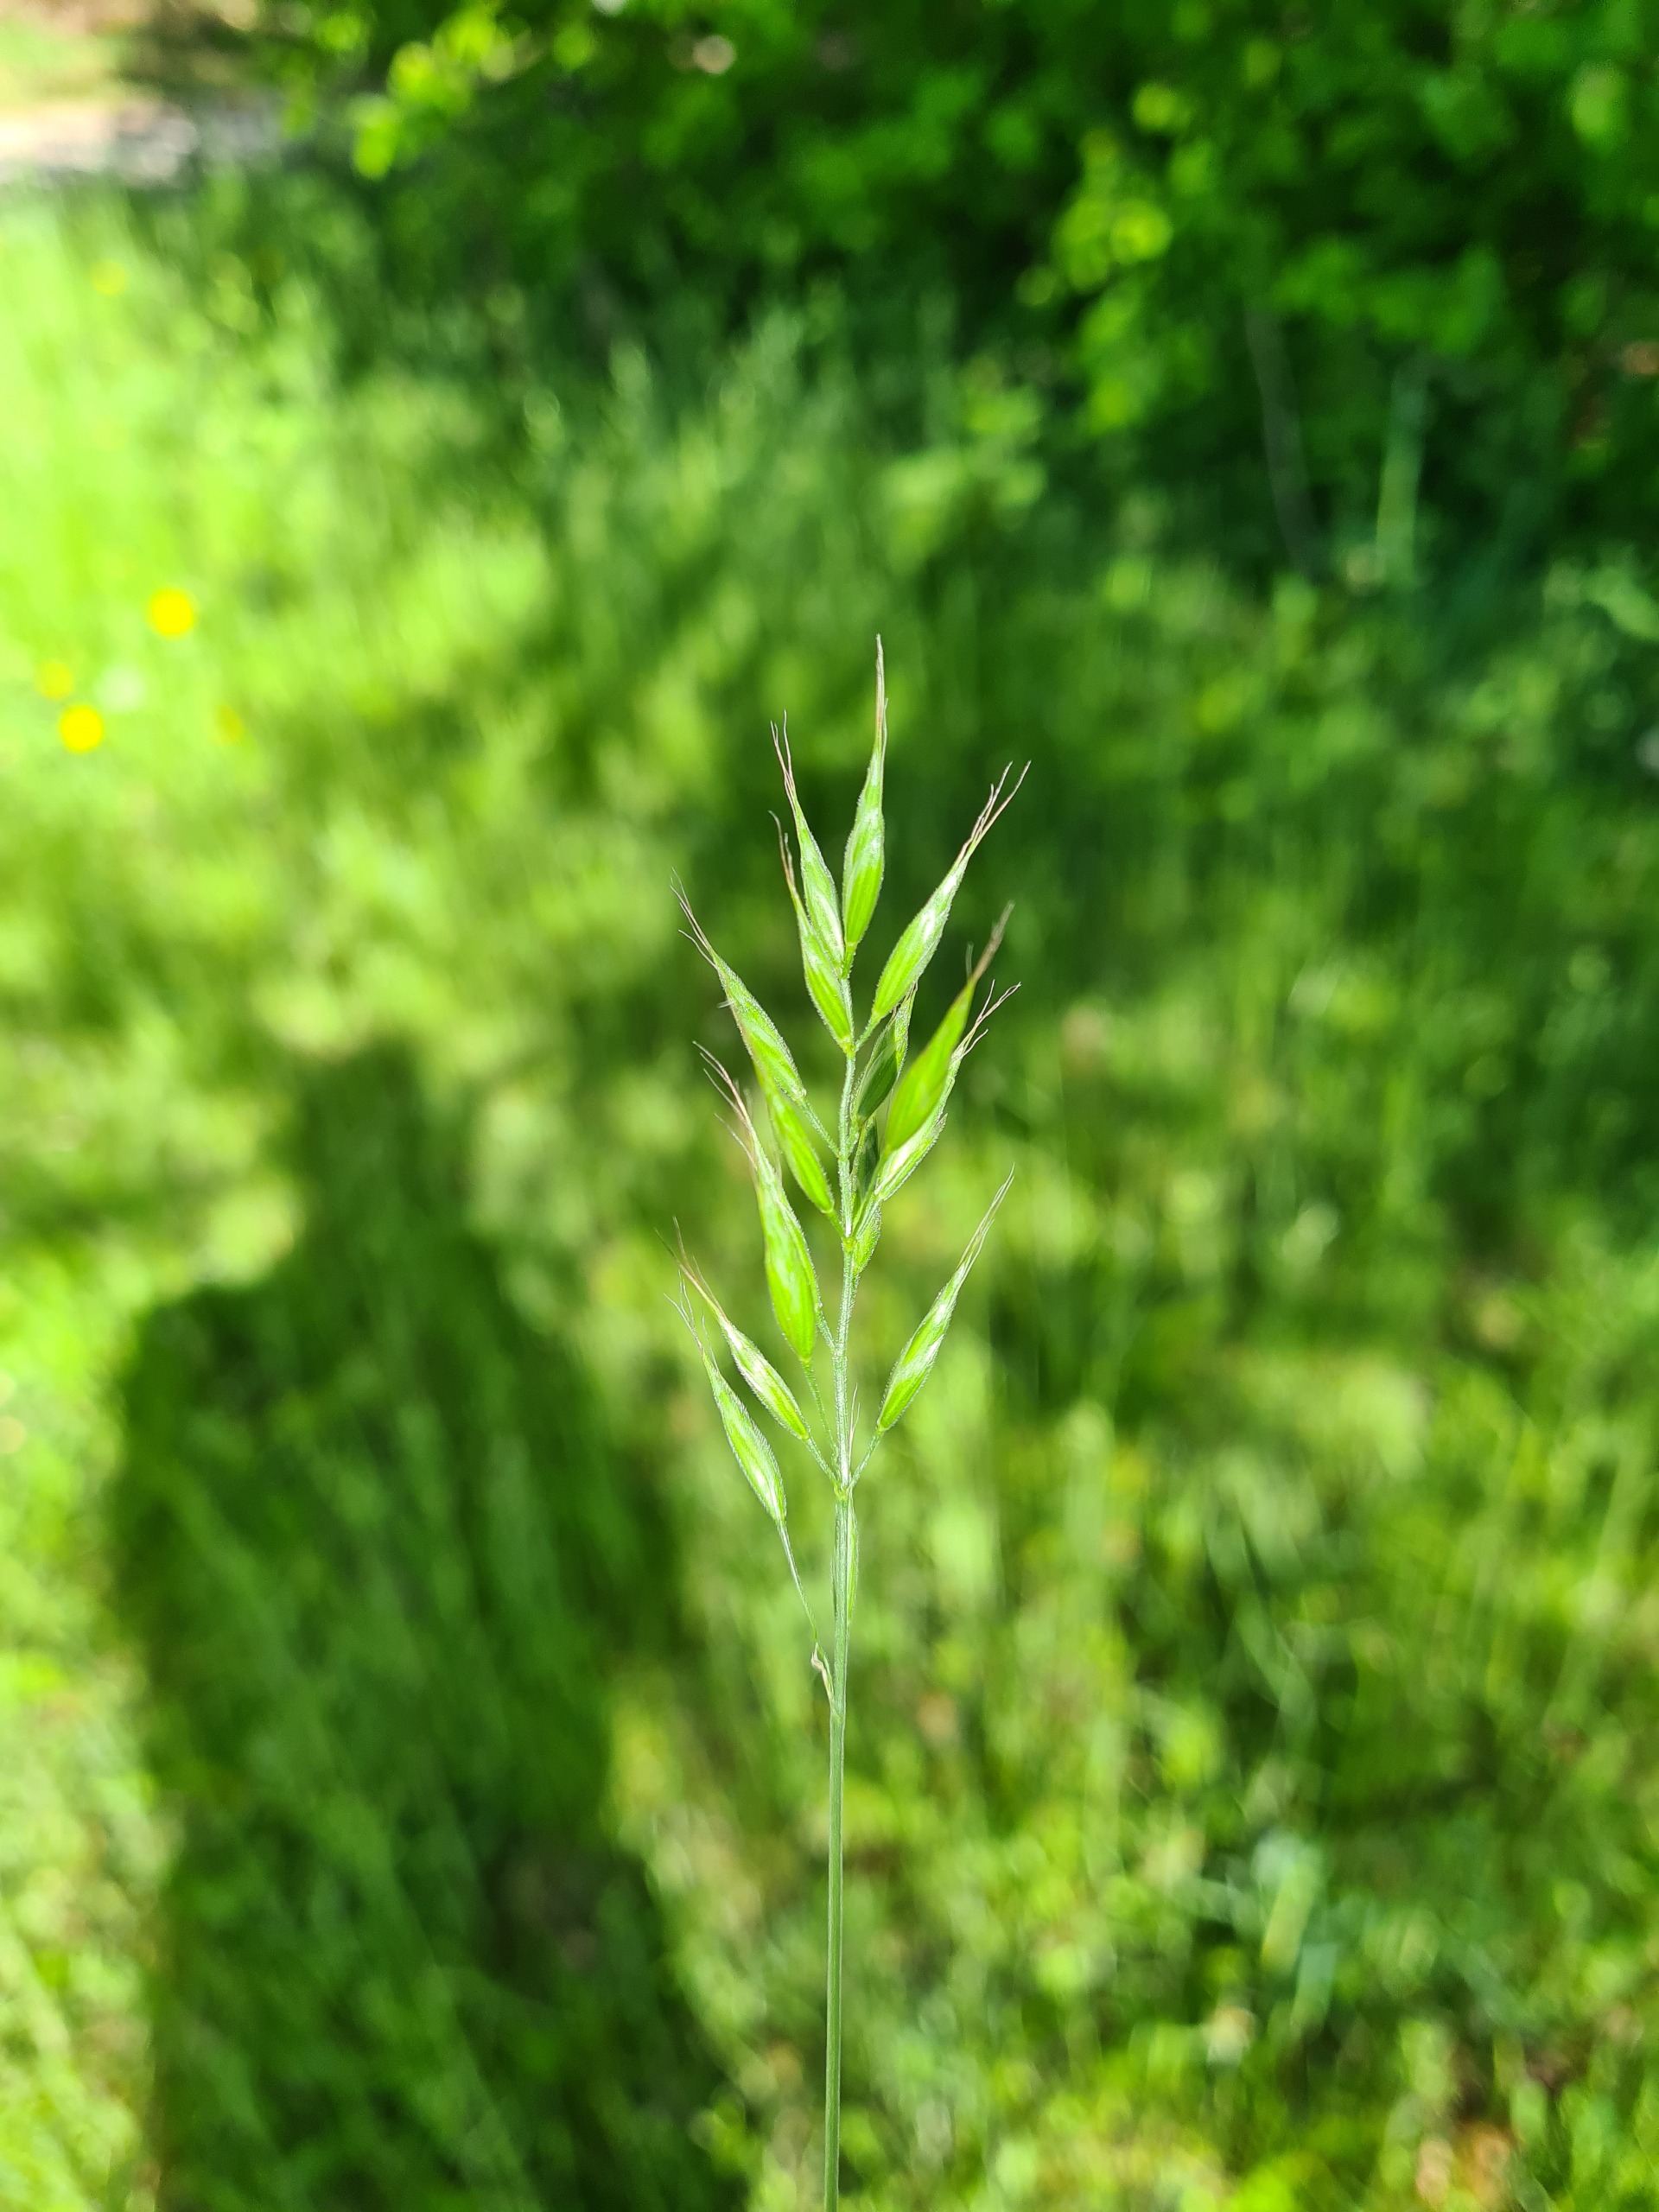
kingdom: Plantae
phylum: Tracheophyta
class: Liliopsida
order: Poales
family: Poaceae
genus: Bromus
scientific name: Bromus hordeaceus
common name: Blød hejre
